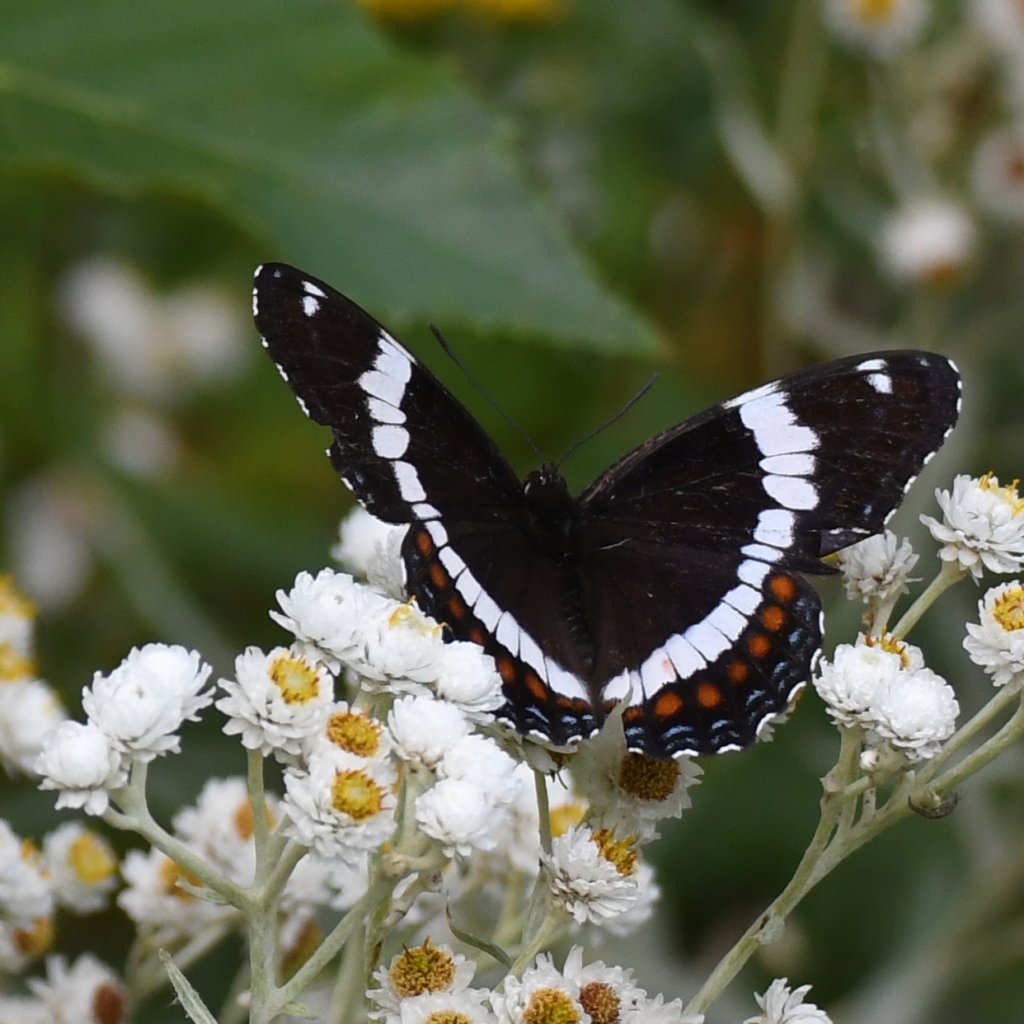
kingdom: Animalia
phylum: Arthropoda
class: Insecta
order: Lepidoptera
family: Nymphalidae
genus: Limenitis
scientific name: Limenitis arthemis
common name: Red-spotted Admiral
